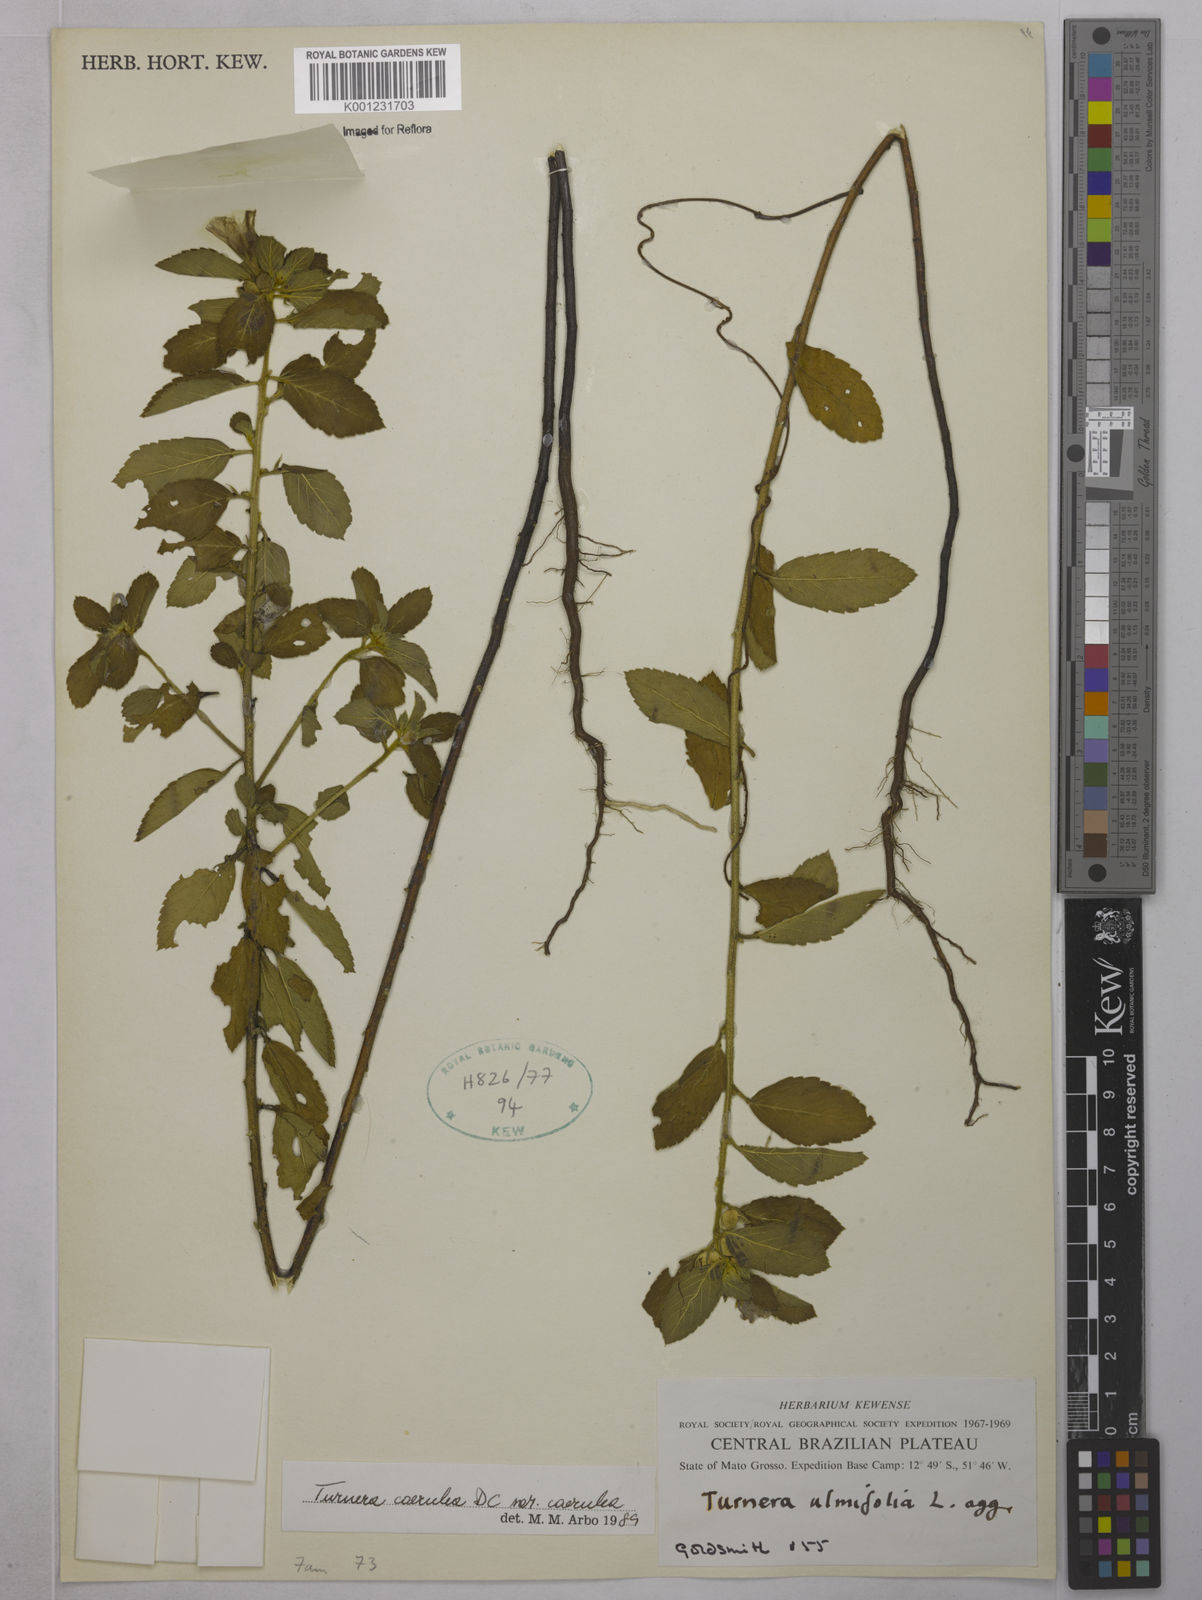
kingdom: Plantae
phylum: Tracheophyta
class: Magnoliopsida
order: Malpighiales
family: Turneraceae
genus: Turnera
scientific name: Turnera
